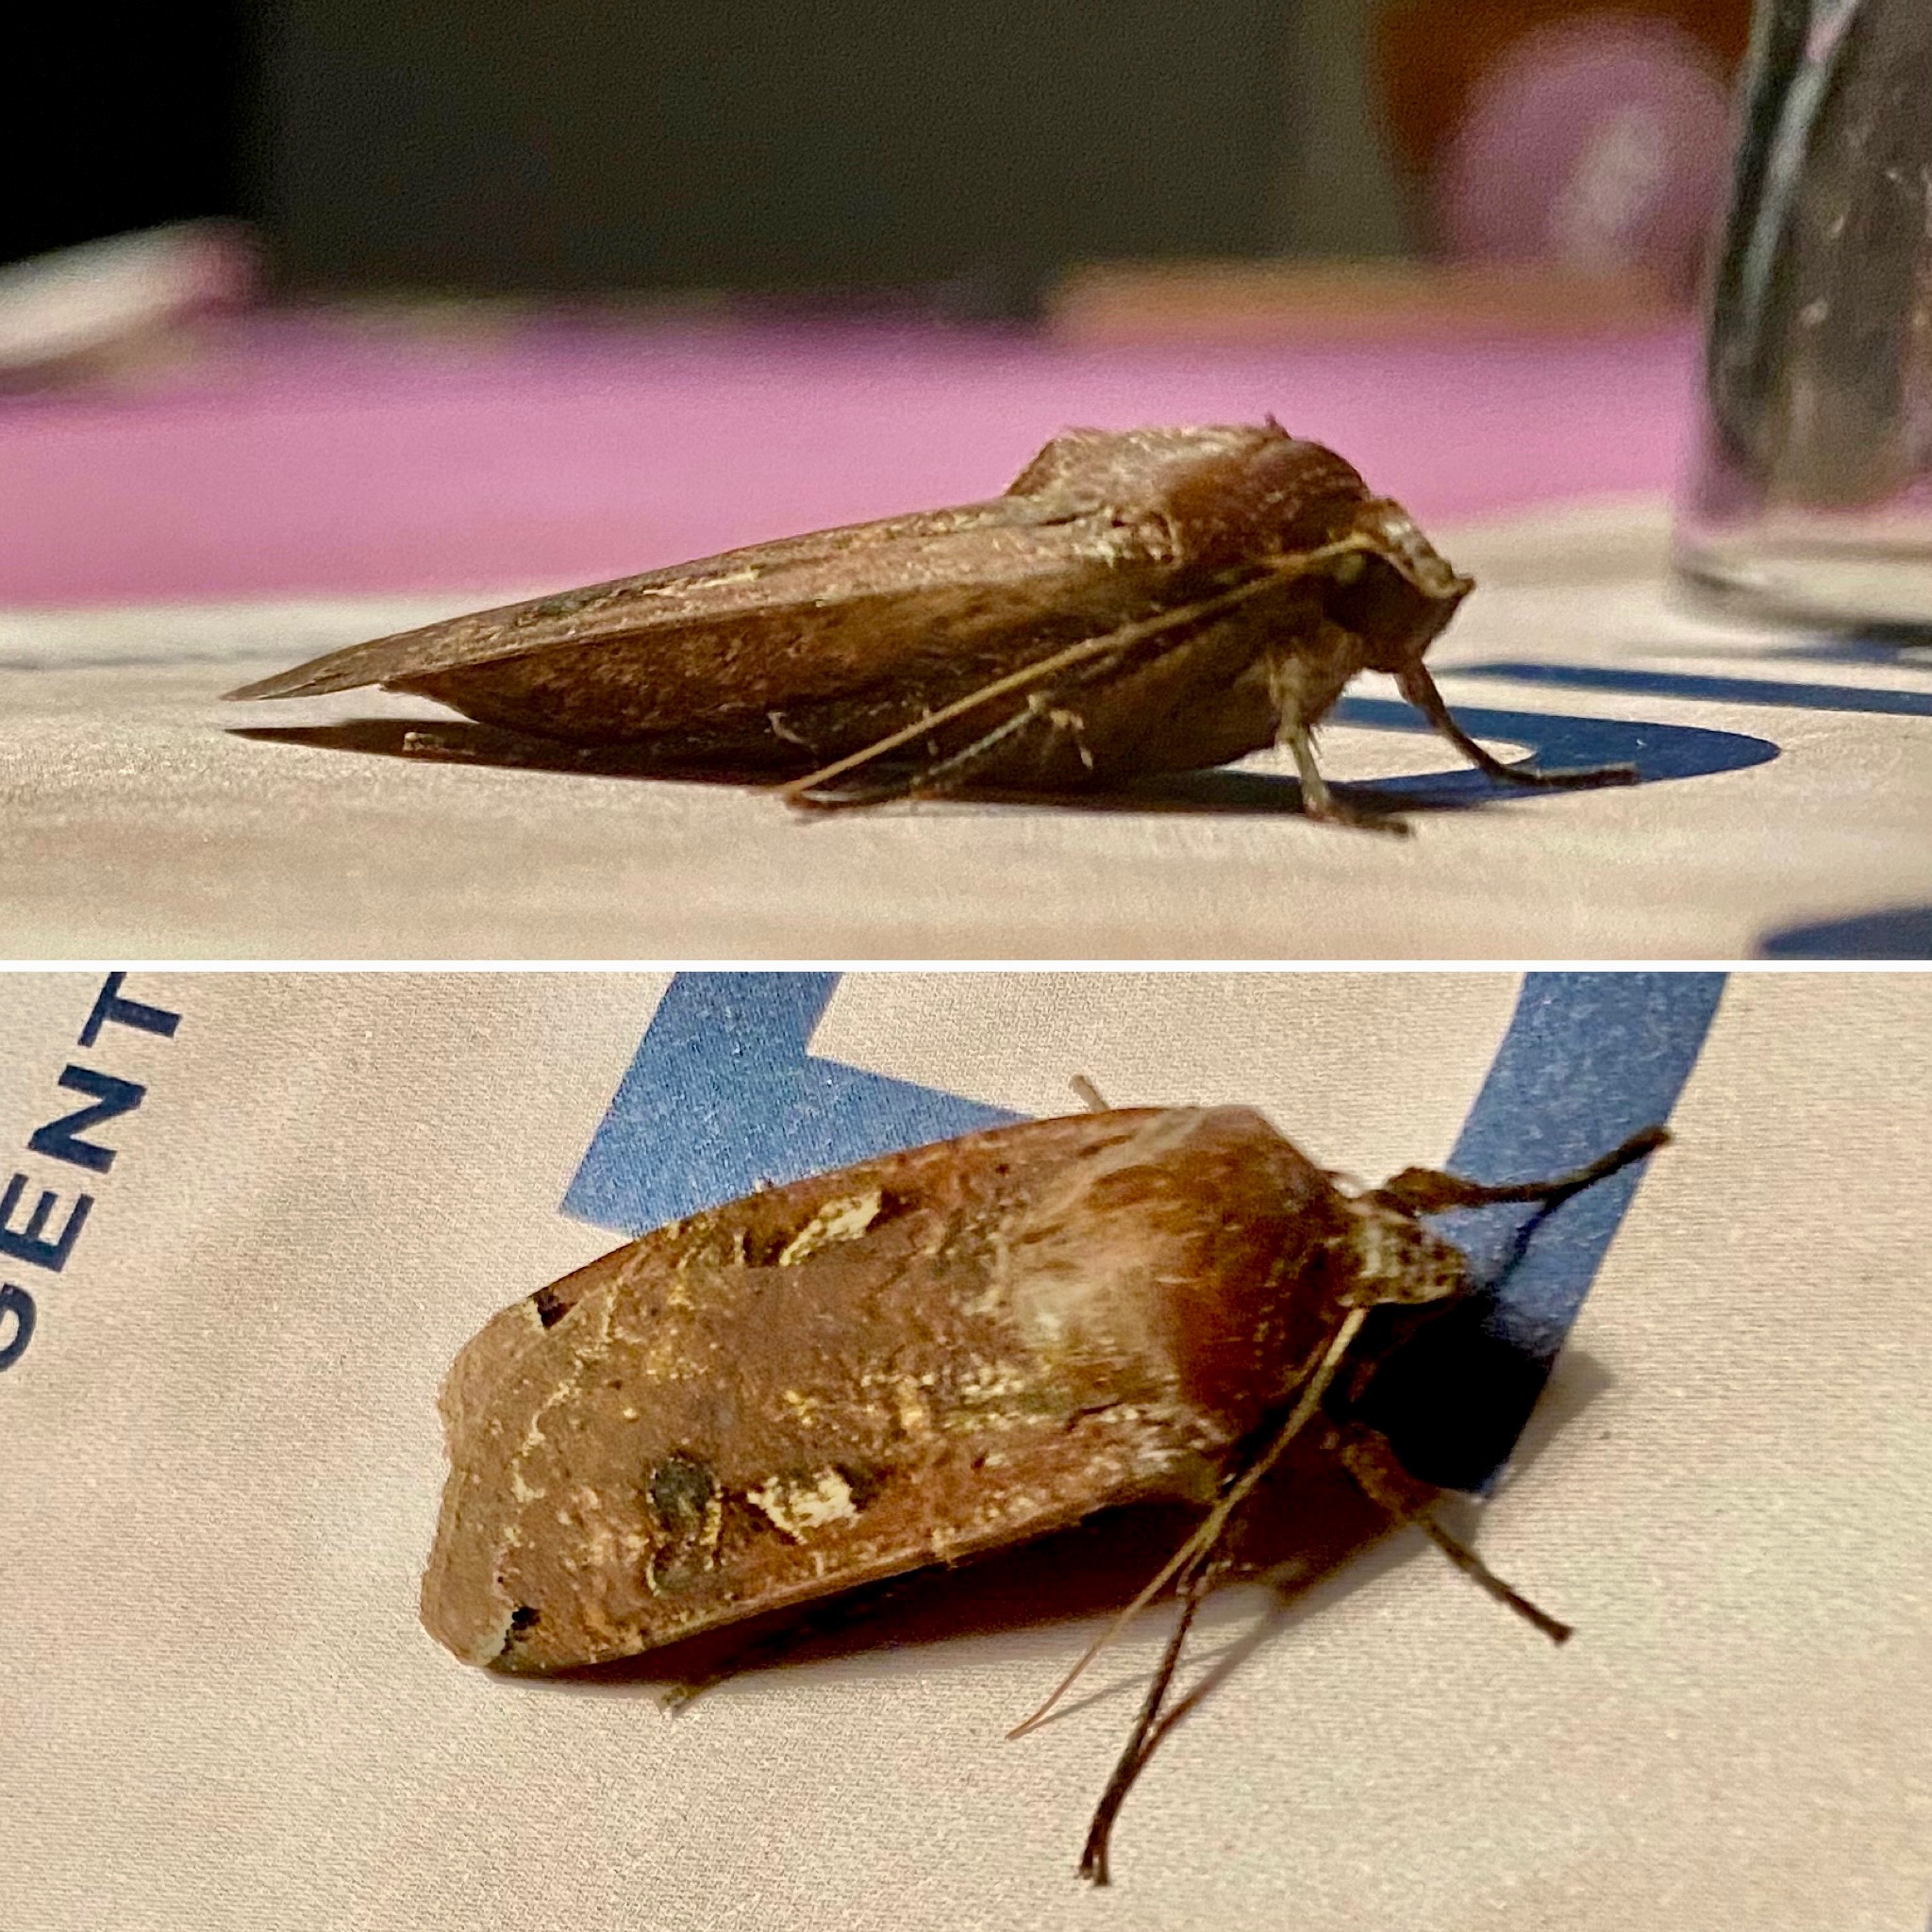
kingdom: Animalia
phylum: Arthropoda
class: Insecta
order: Lepidoptera
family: Noctuidae
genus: Noctua
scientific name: Noctua pronuba
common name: Stor smutugle
